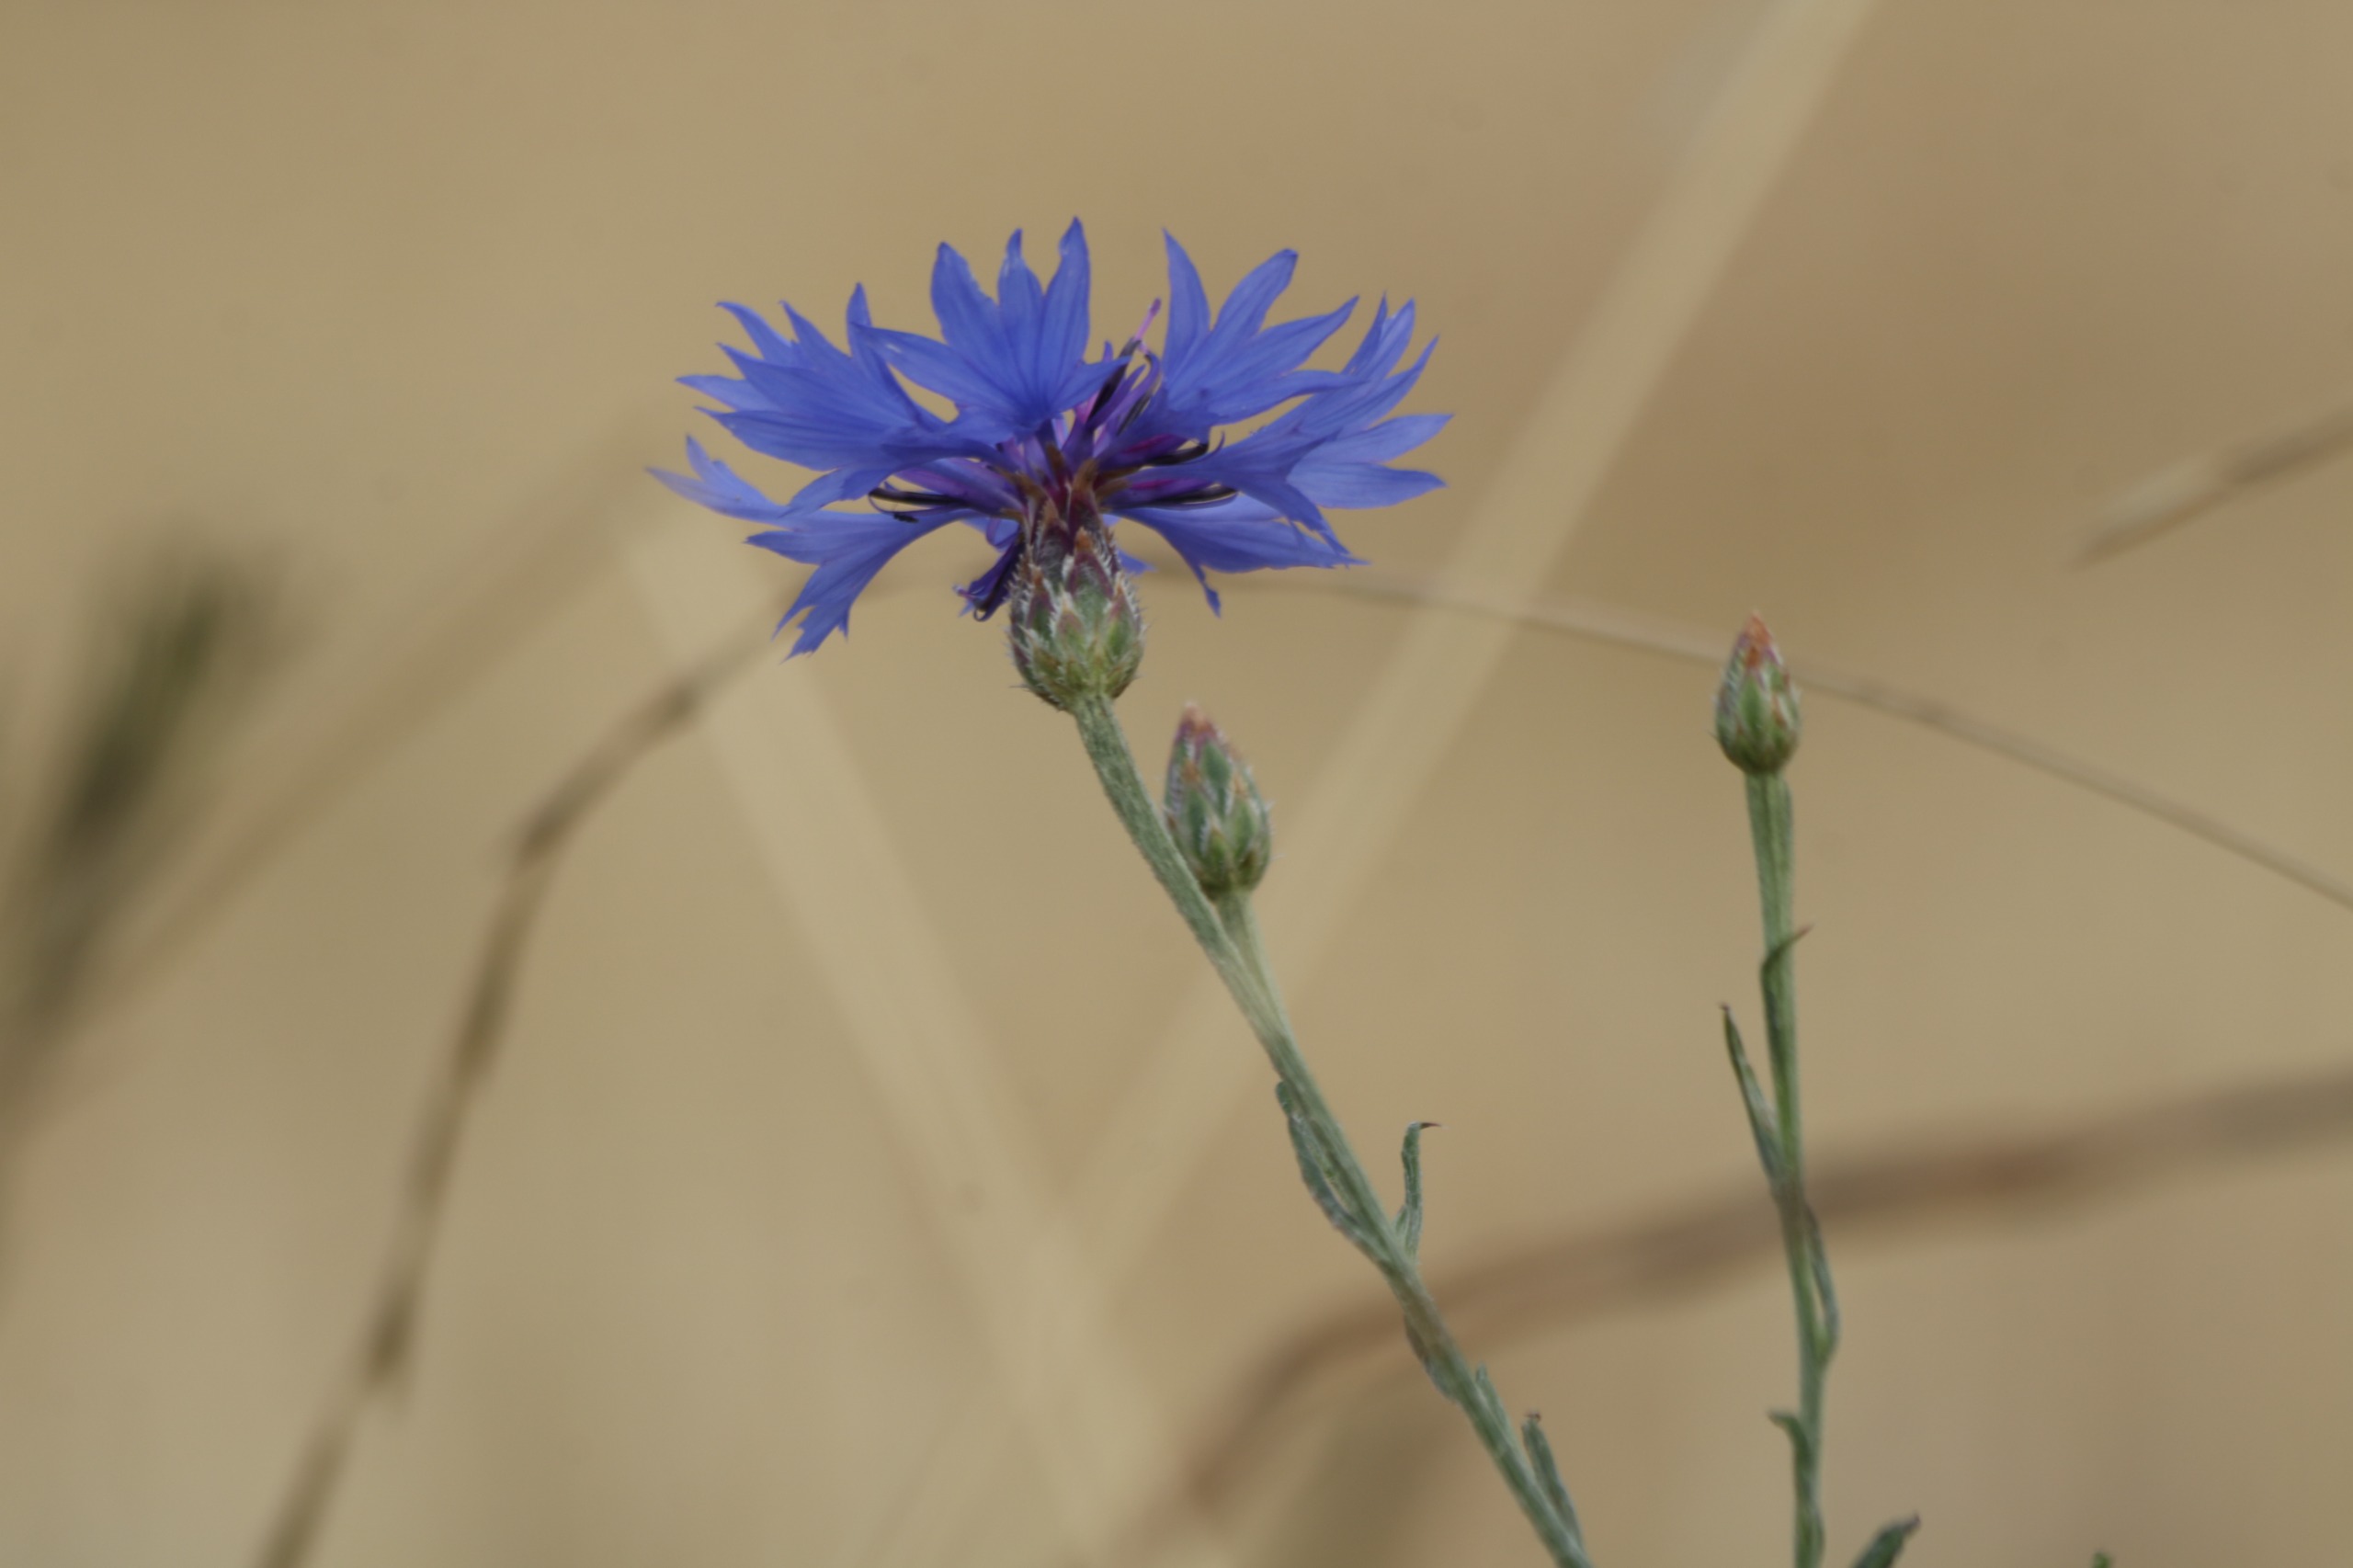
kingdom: Plantae
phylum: Tracheophyta
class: Magnoliopsida
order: Asterales
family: Asteraceae
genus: Centaurea
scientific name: Centaurea cyanus
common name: Kornblomst
